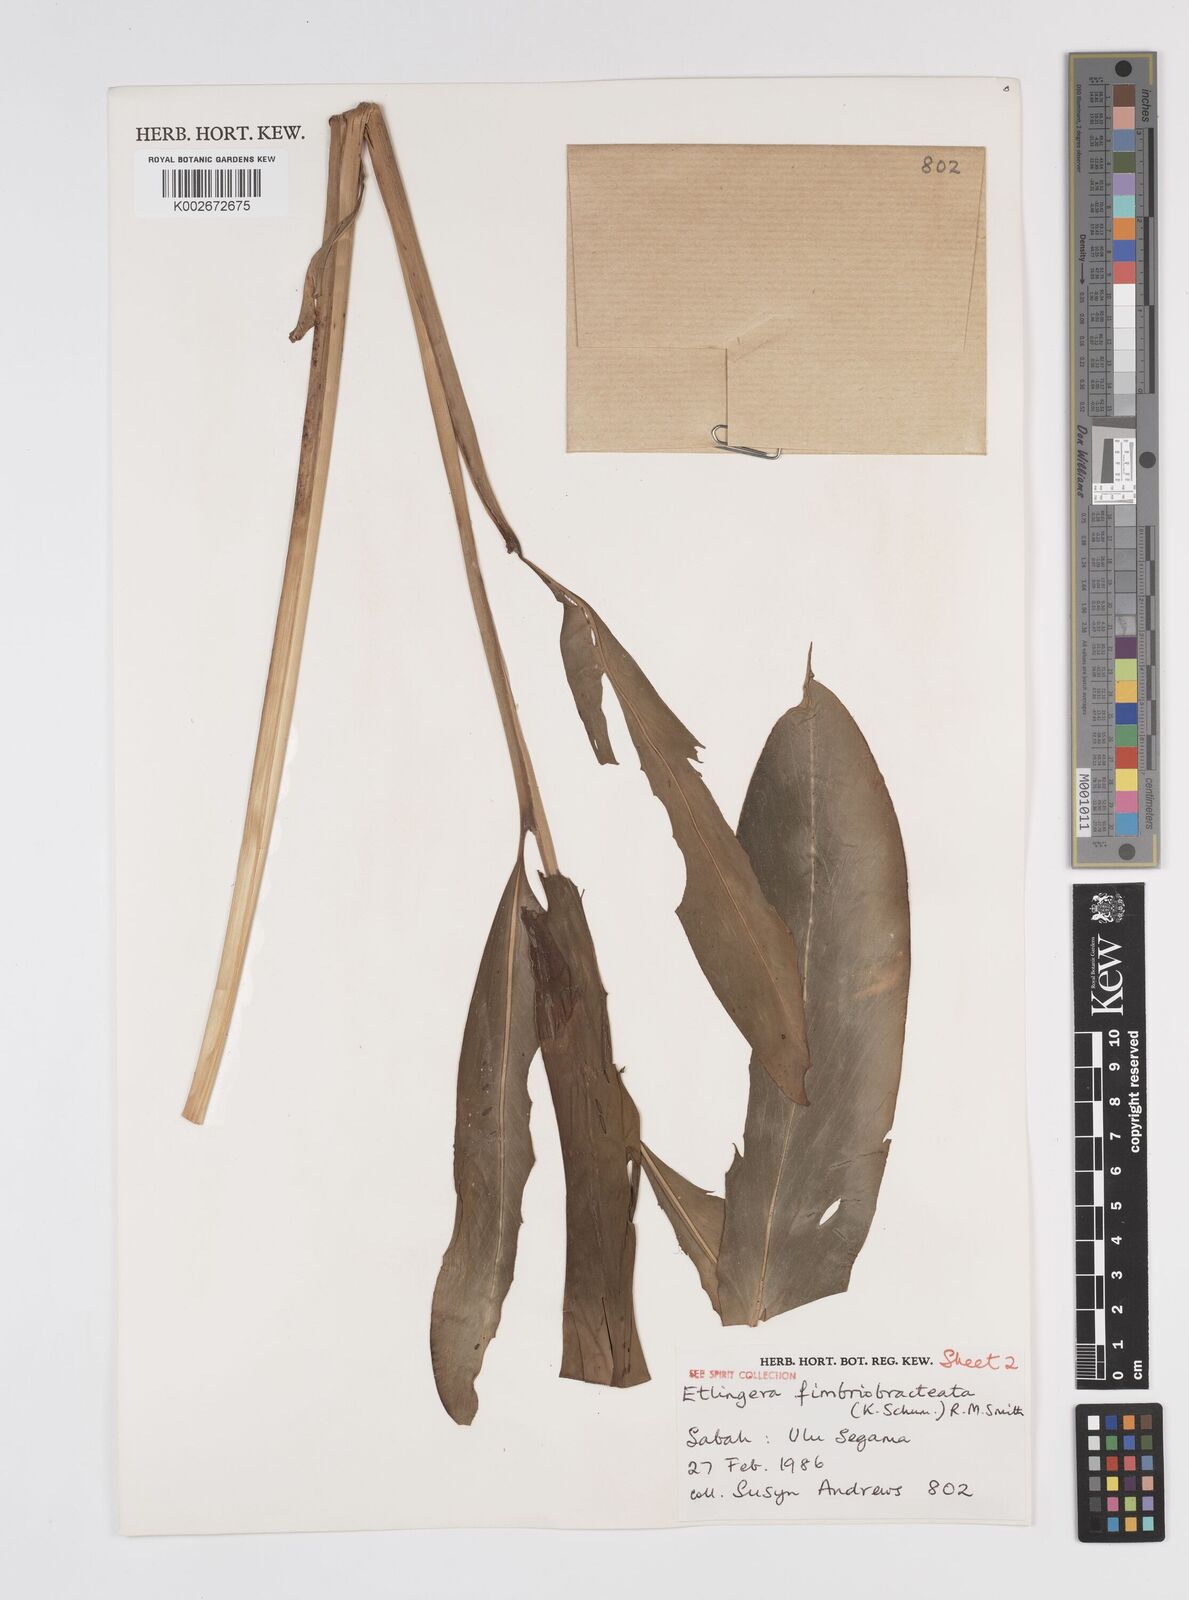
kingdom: Plantae
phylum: Tracheophyta
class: Liliopsida
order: Zingiberales
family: Zingiberaceae
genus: Etlingera
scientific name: Etlingera fimbriobracteata
